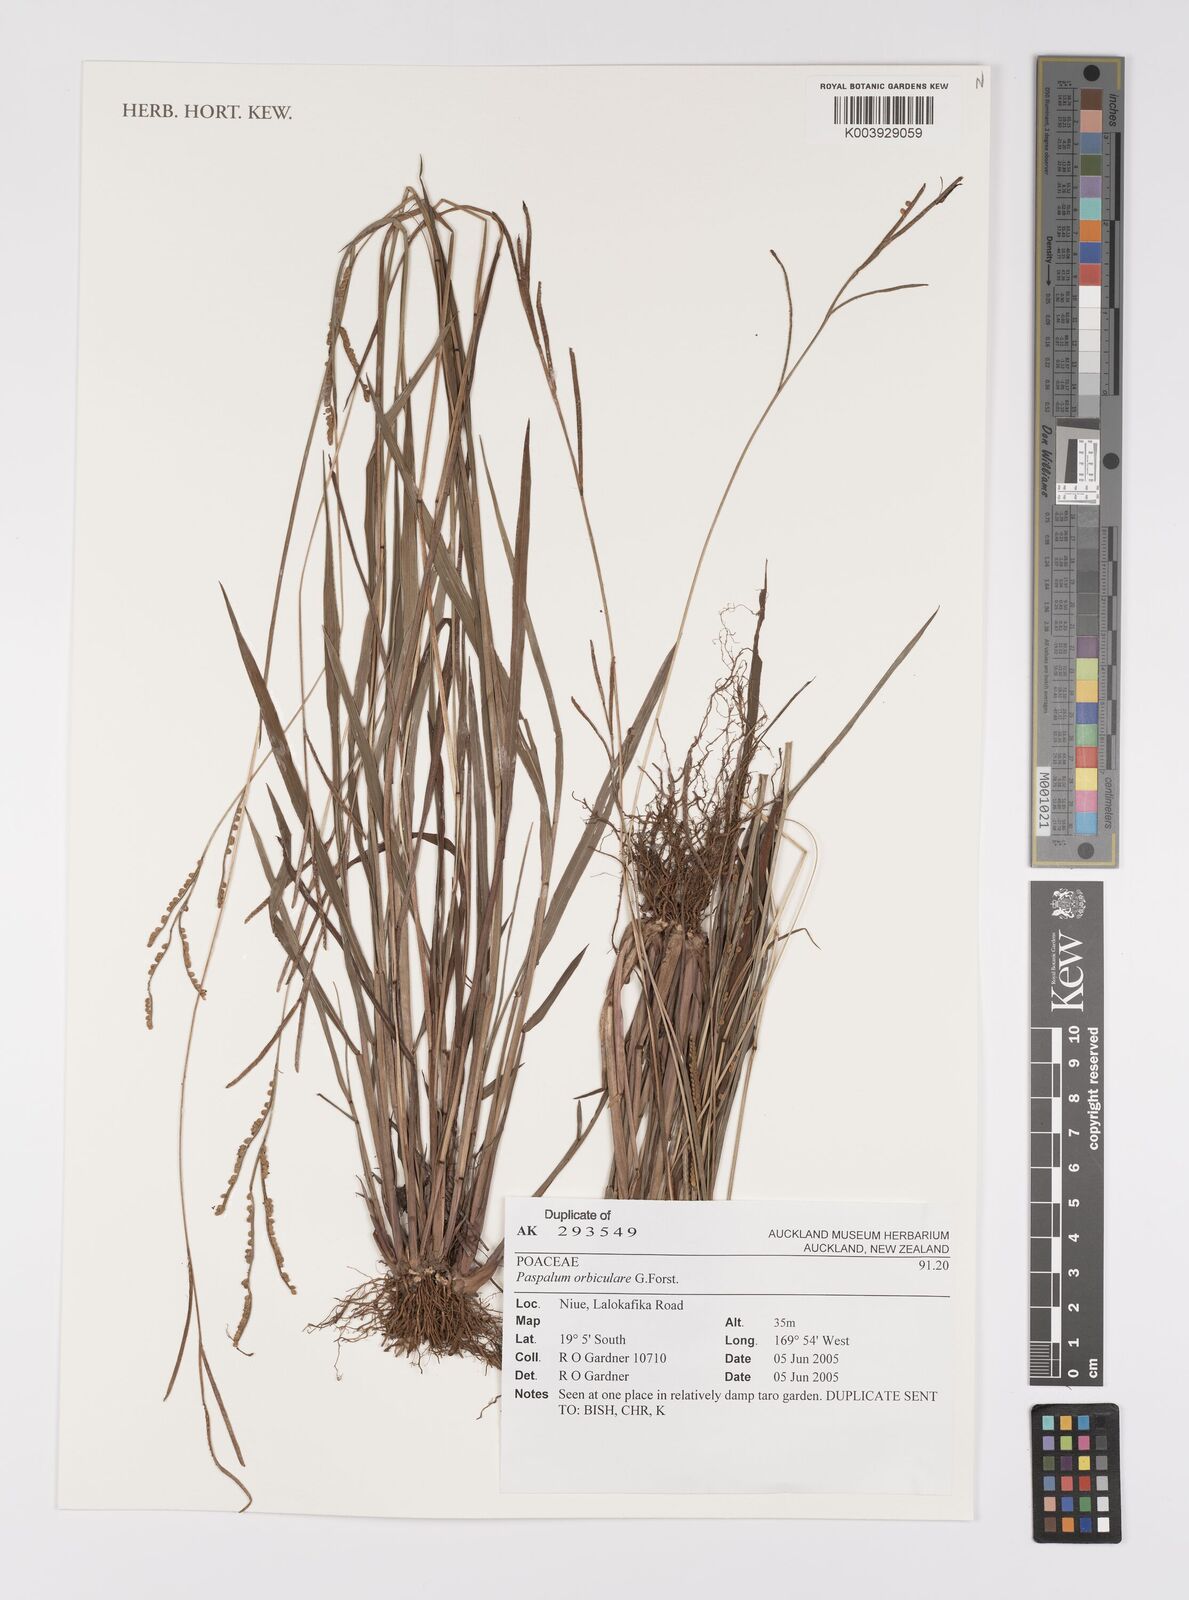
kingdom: Plantae
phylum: Tracheophyta
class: Liliopsida
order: Poales
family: Poaceae
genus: Paspalum
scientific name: Paspalum scrobiculatum
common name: Kodo millet
